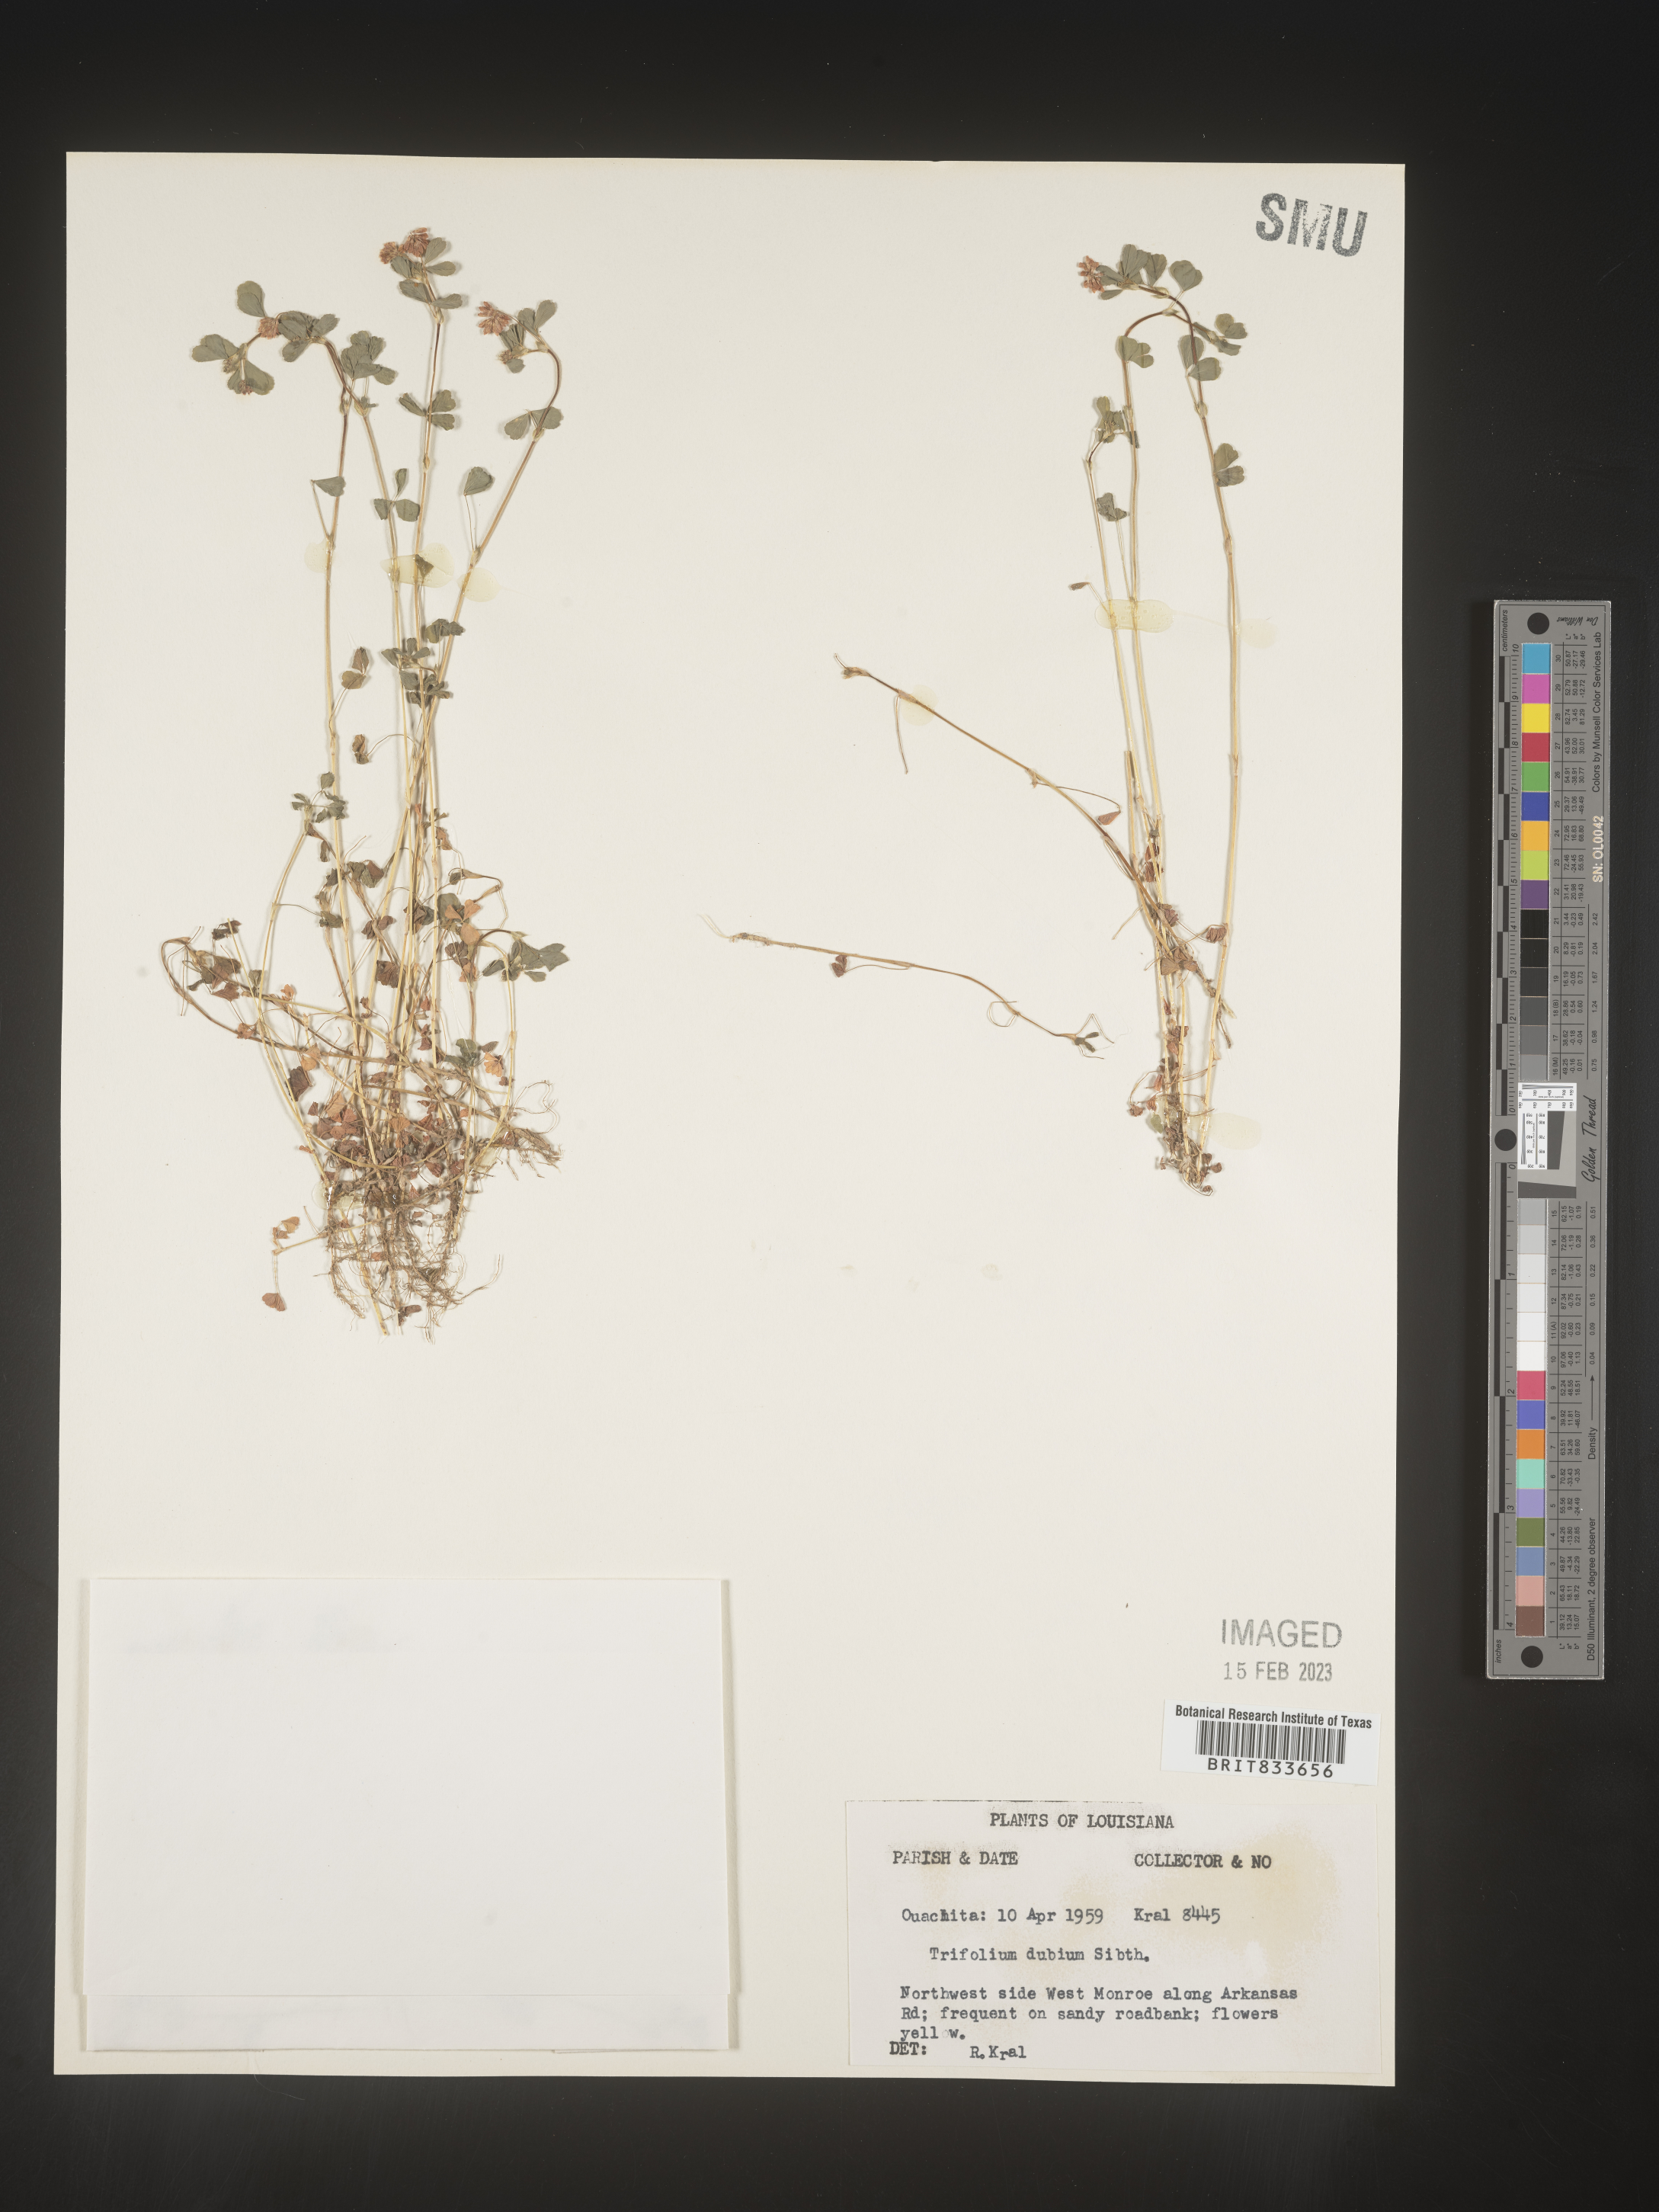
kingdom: Plantae
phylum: Tracheophyta
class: Magnoliopsida
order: Fabales
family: Fabaceae
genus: Trifolium
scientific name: Trifolium dubium
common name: Suckling clover
